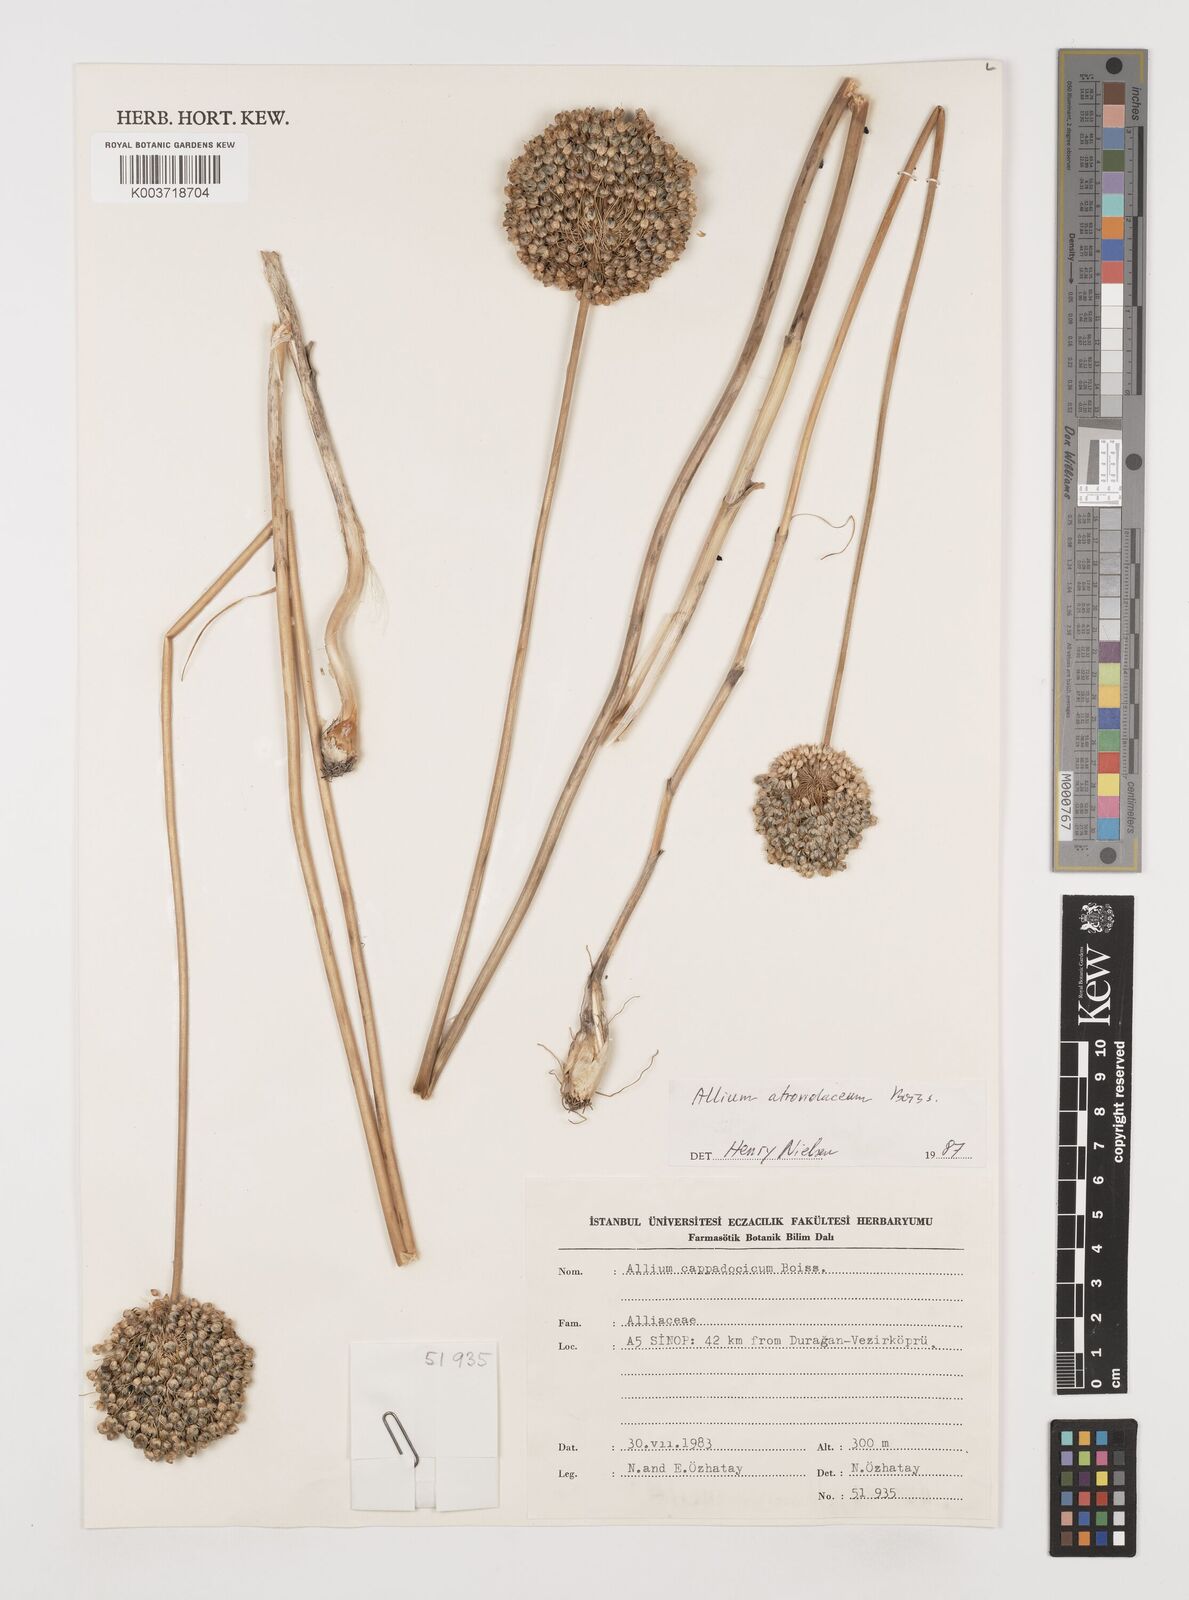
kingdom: Plantae
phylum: Tracheophyta
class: Liliopsida
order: Asparagales
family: Amaryllidaceae
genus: Allium
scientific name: Allium atroviolaceum
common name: Broadleaf wild leek
